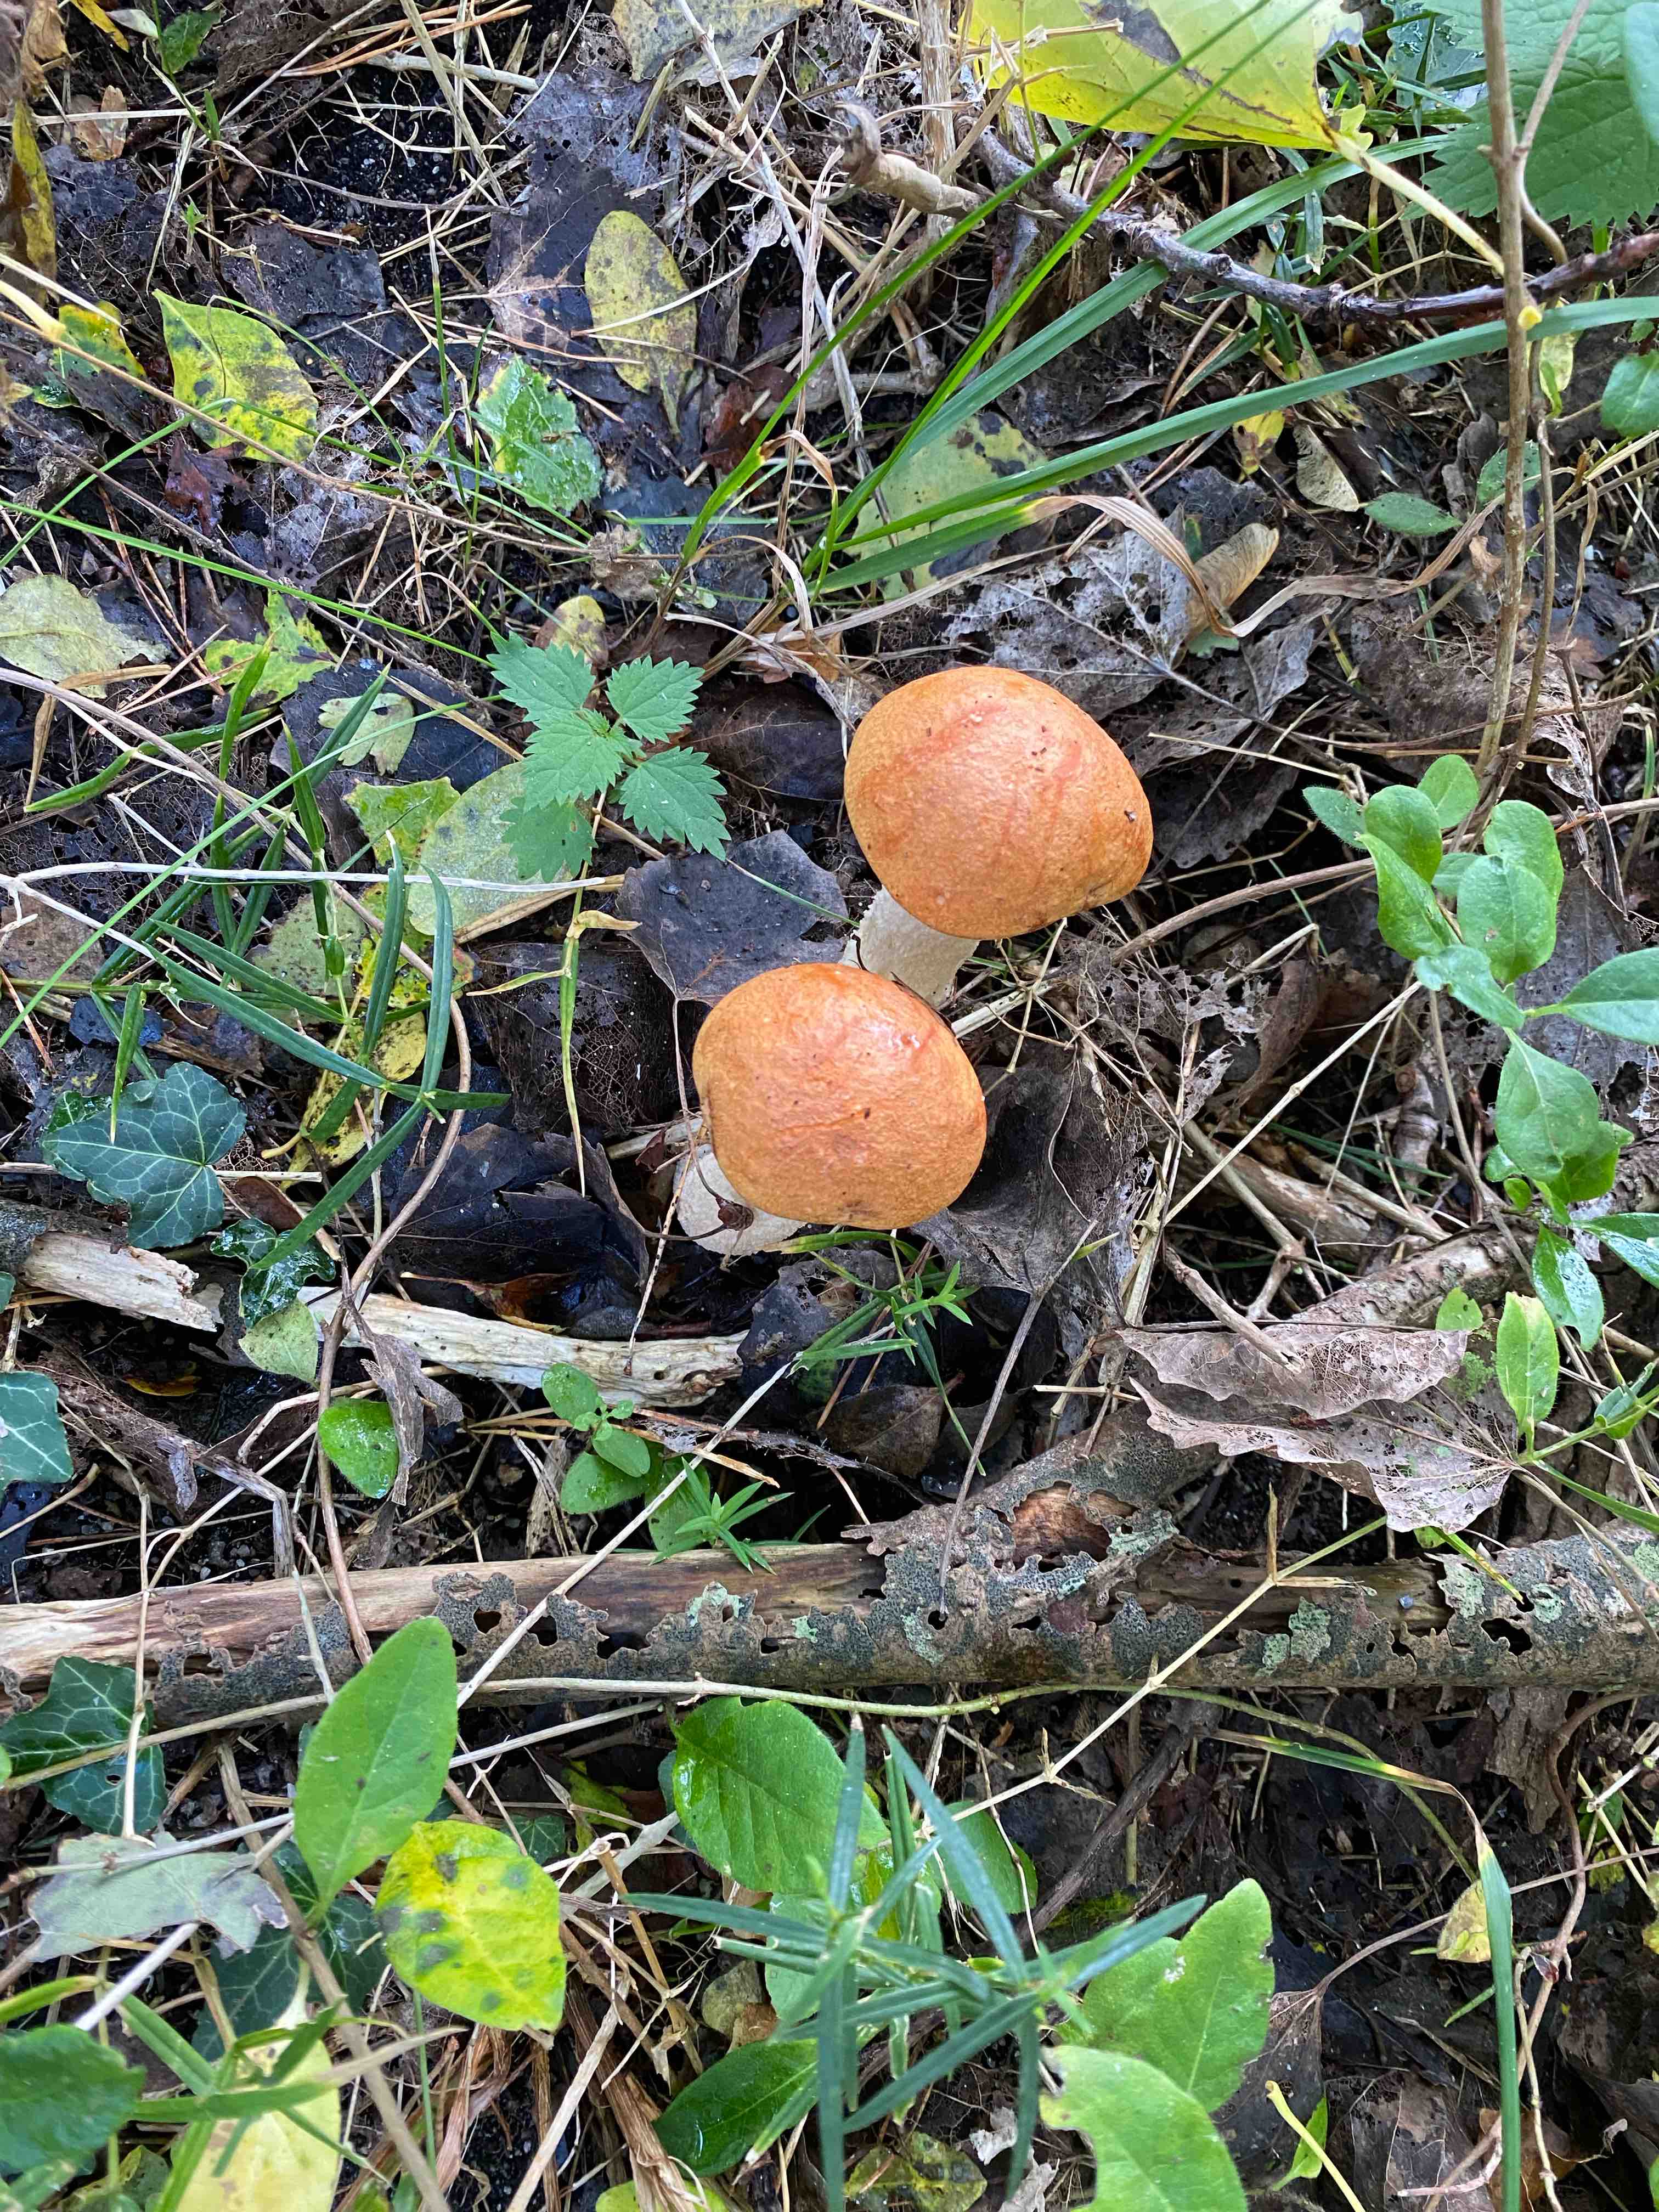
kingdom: Fungi
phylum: Basidiomycota
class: Agaricomycetes
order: Boletales
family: Boletaceae
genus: Leccinum
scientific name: Leccinum albostipitatum
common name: aspe-skælrørhat
